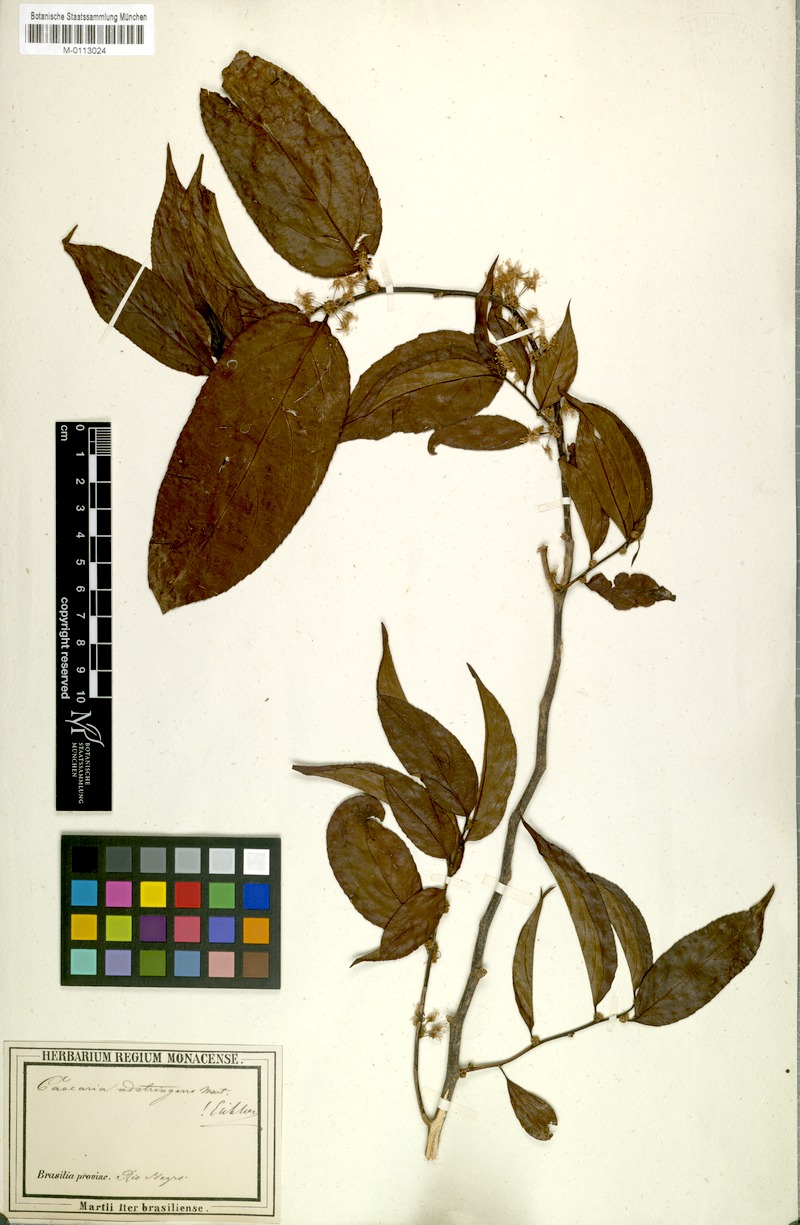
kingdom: Plantae
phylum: Tracheophyta
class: Magnoliopsida
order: Malpighiales
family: Salicaceae
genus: Casearia
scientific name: Casearia decandra
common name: Crack open
